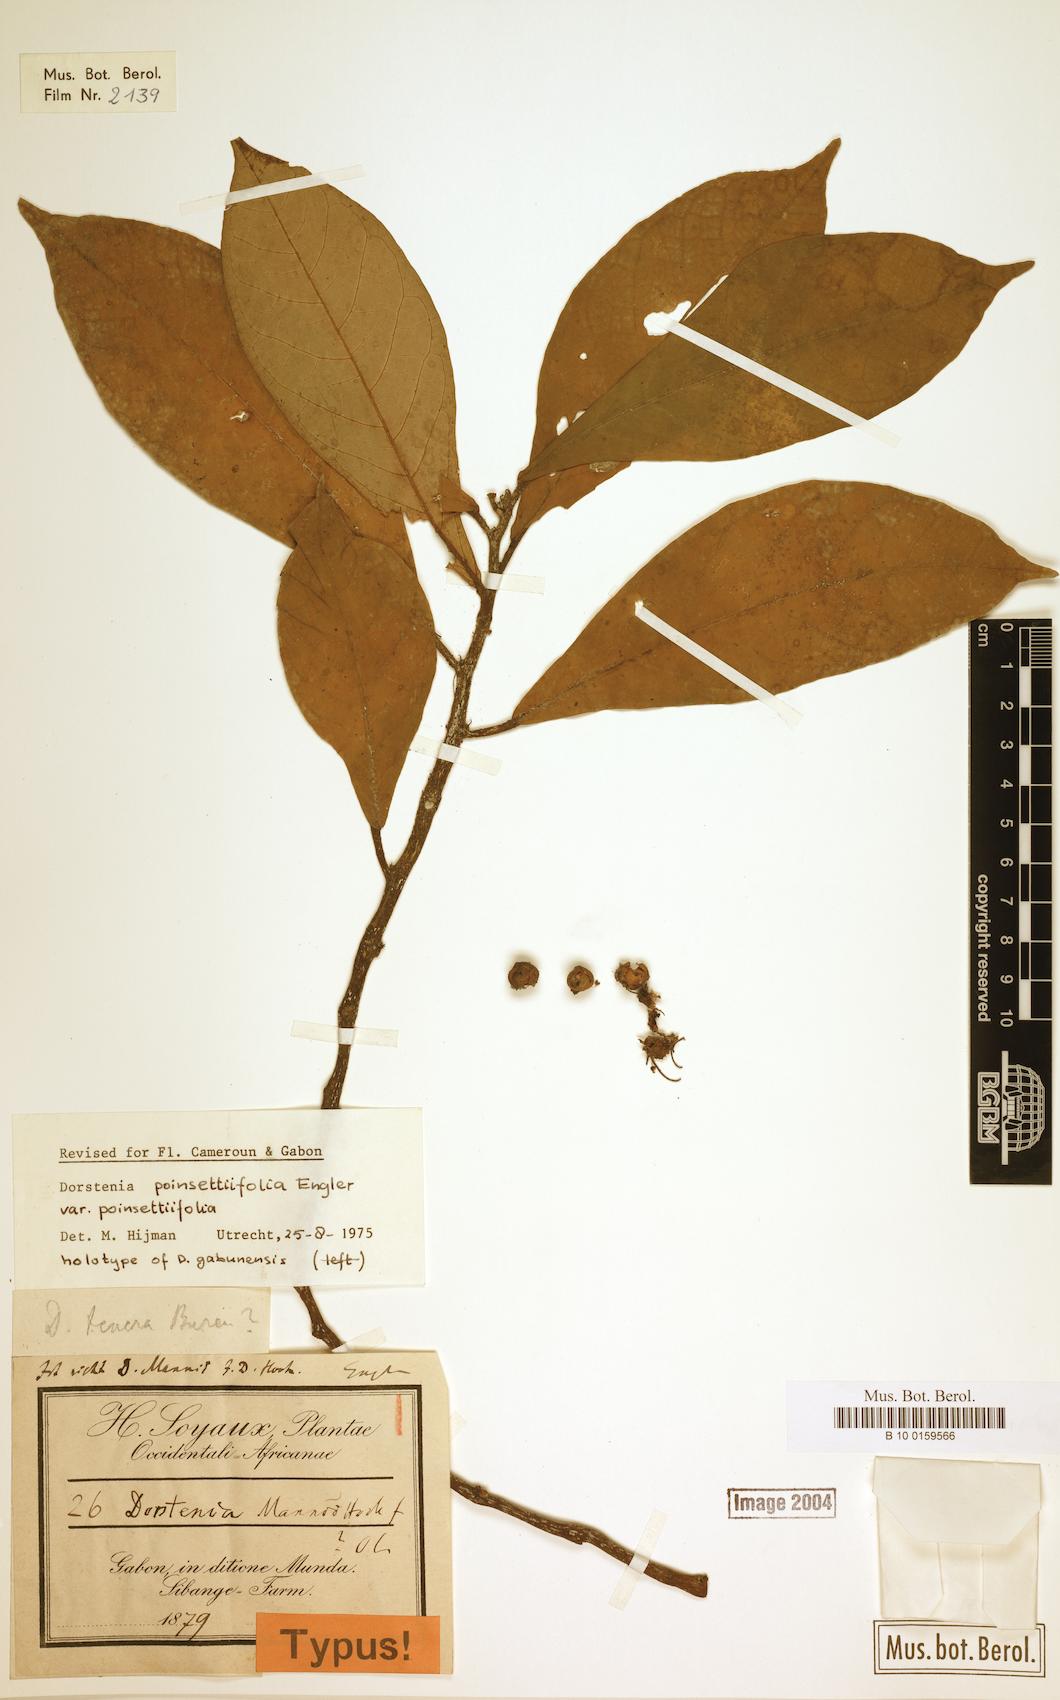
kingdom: Plantae
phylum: Tracheophyta
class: Magnoliopsida
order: Rosales
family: Moraceae
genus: Dorstenia
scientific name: Dorstenia poinsettifolia
